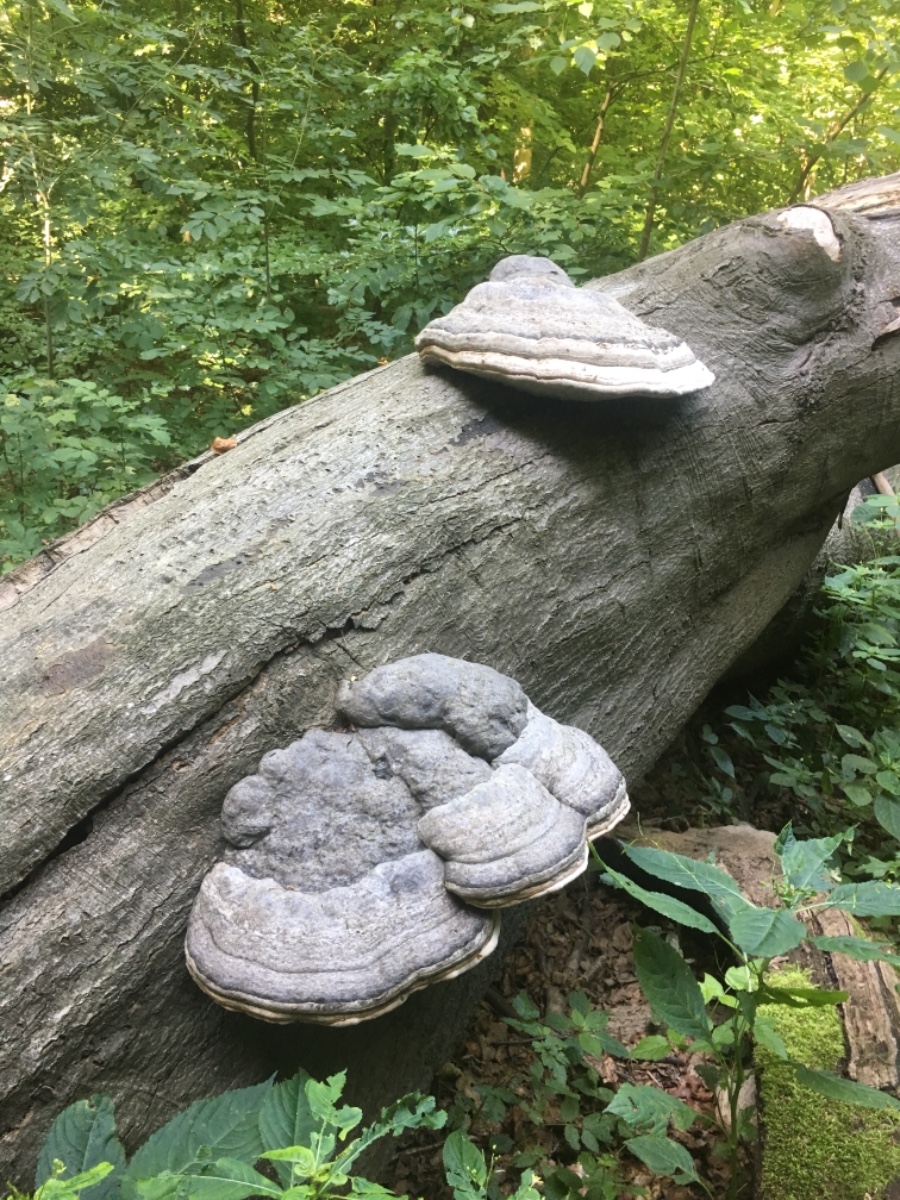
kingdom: Fungi
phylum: Basidiomycota
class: Agaricomycetes
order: Polyporales
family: Polyporaceae
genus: Fomes
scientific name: Fomes fomentarius
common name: tøndersvamp
